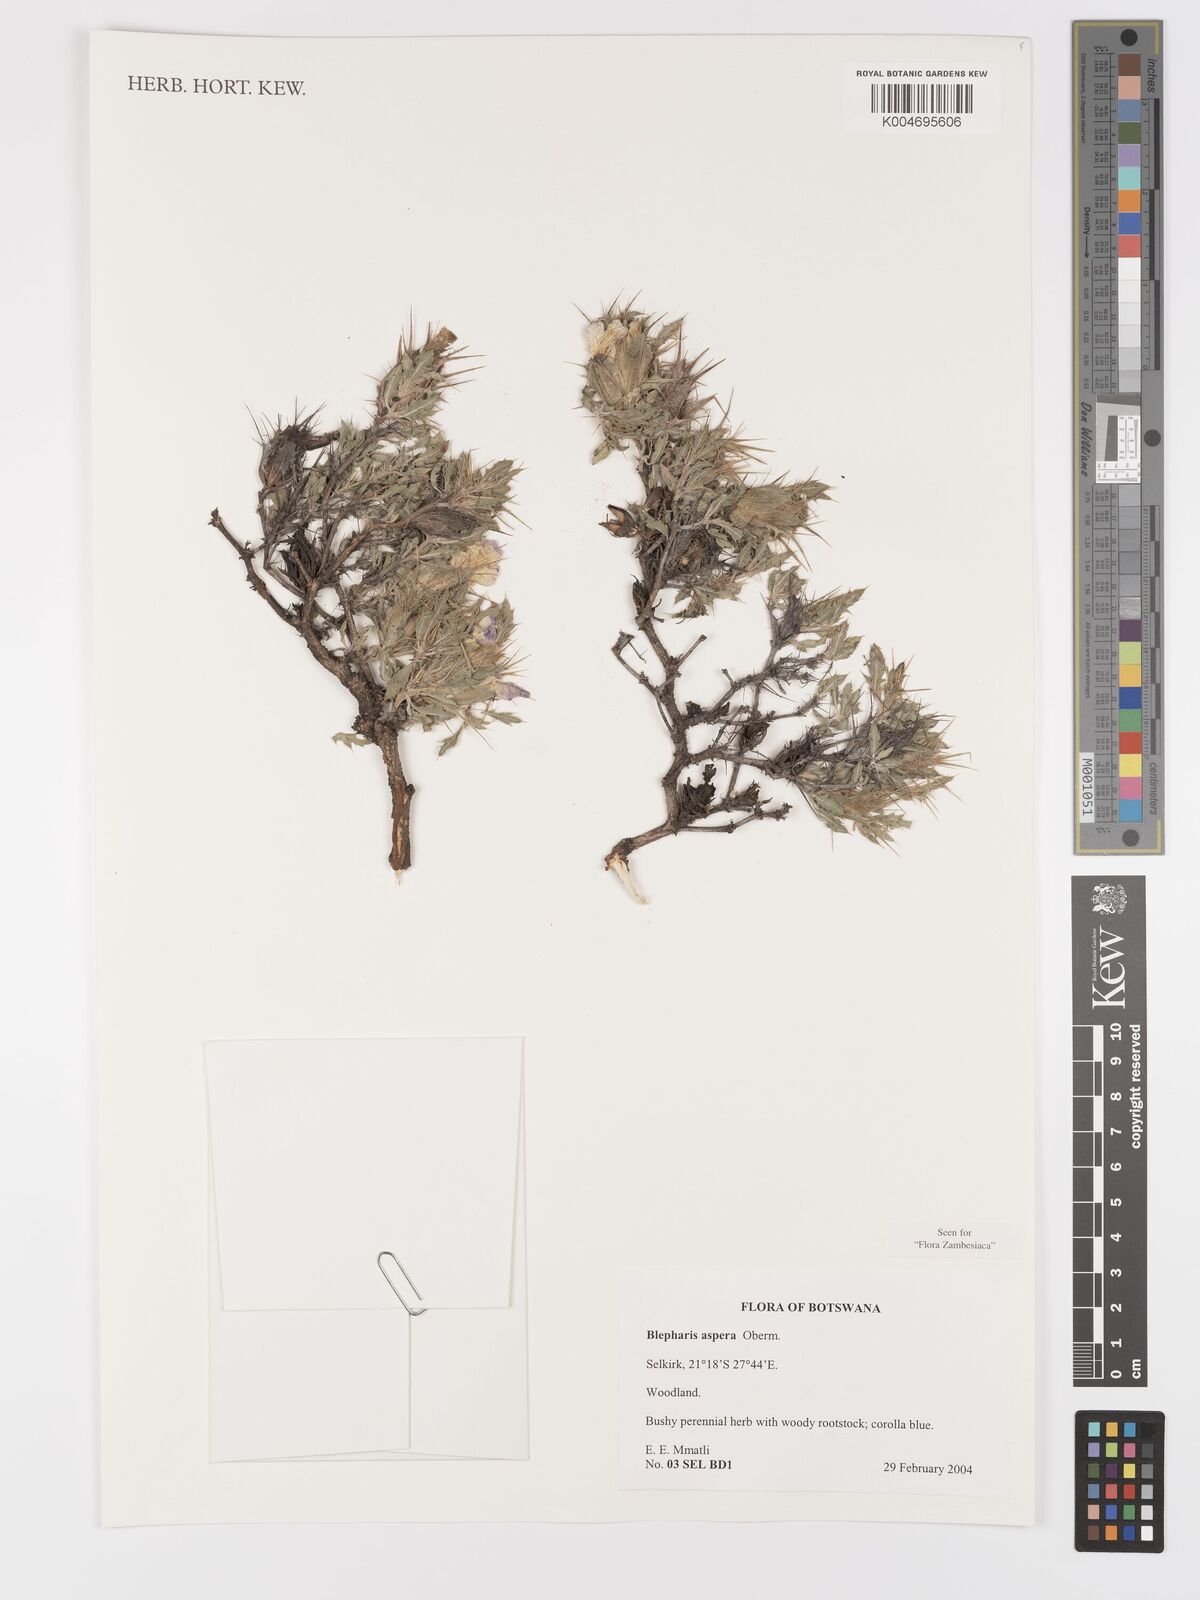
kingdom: Plantae
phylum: Tracheophyta
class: Magnoliopsida
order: Lamiales
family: Acanthaceae
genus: Blepharis
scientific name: Blepharis aspera
